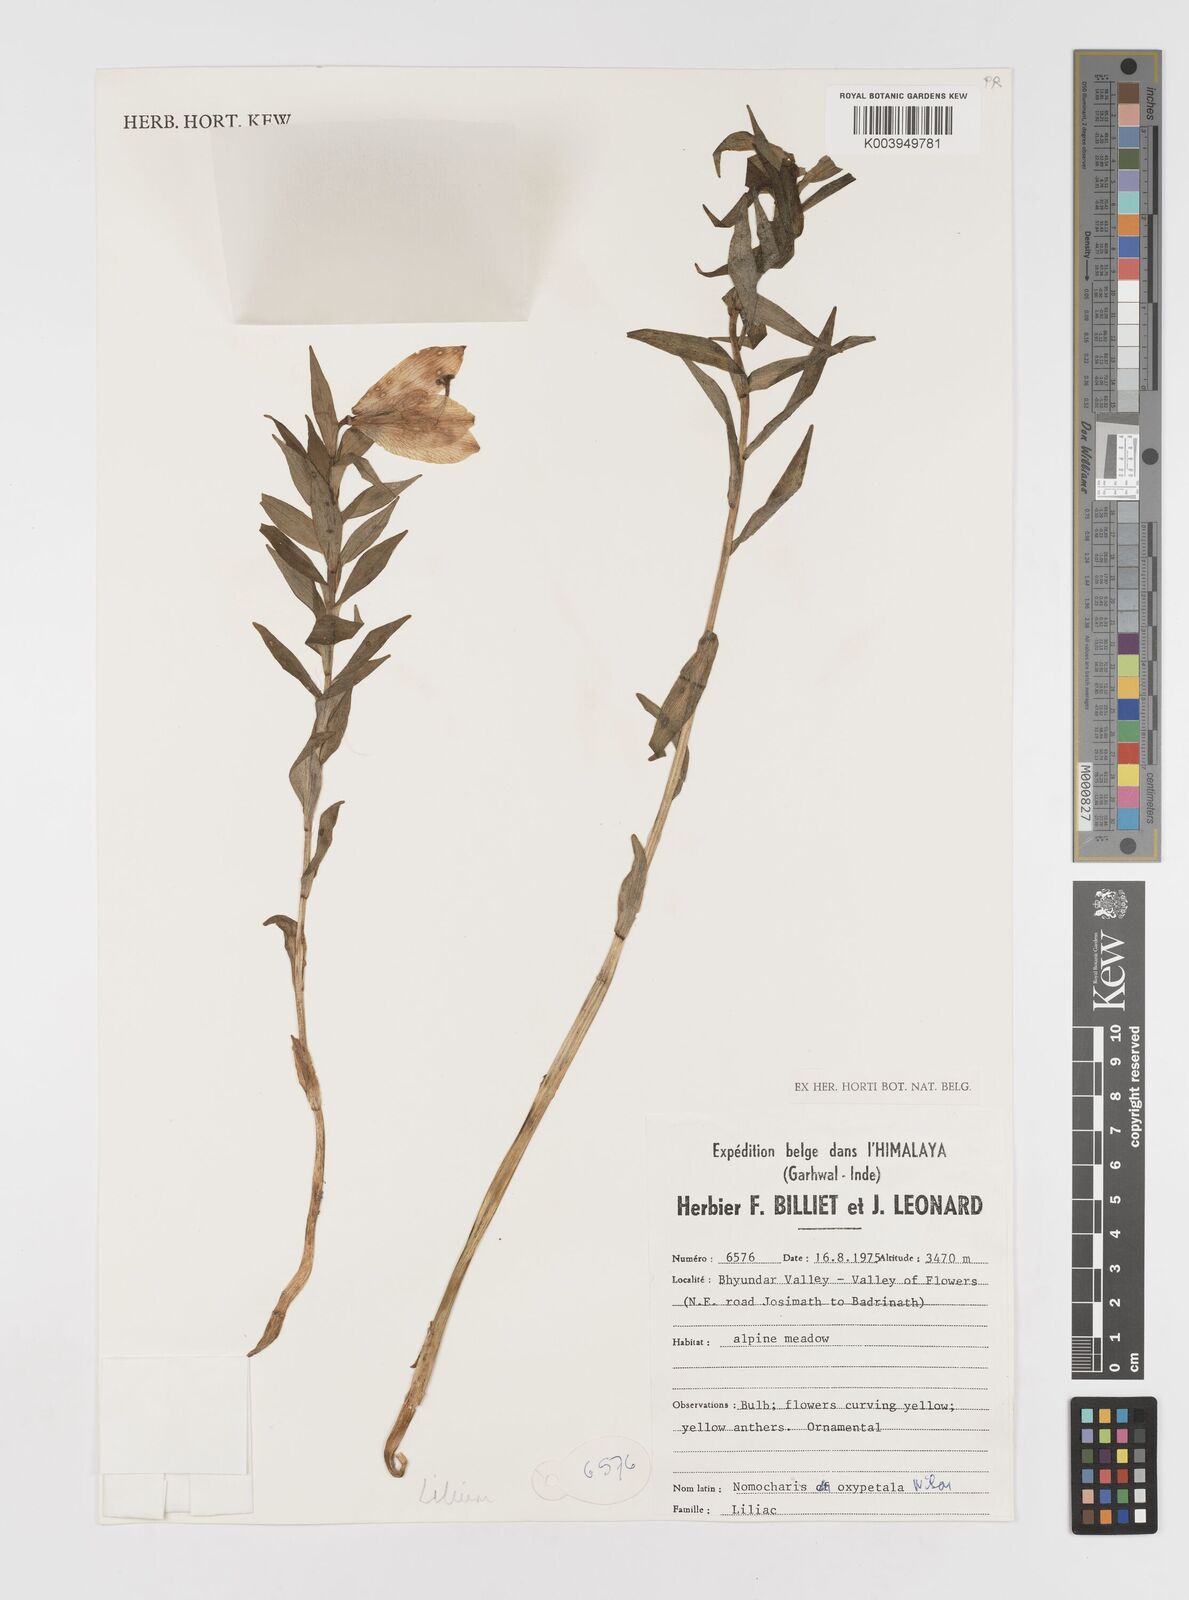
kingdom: Plantae
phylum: Tracheophyta
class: Liliopsida
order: Liliales
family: Liliaceae
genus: Lilium
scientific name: Lilium oxypetalum
